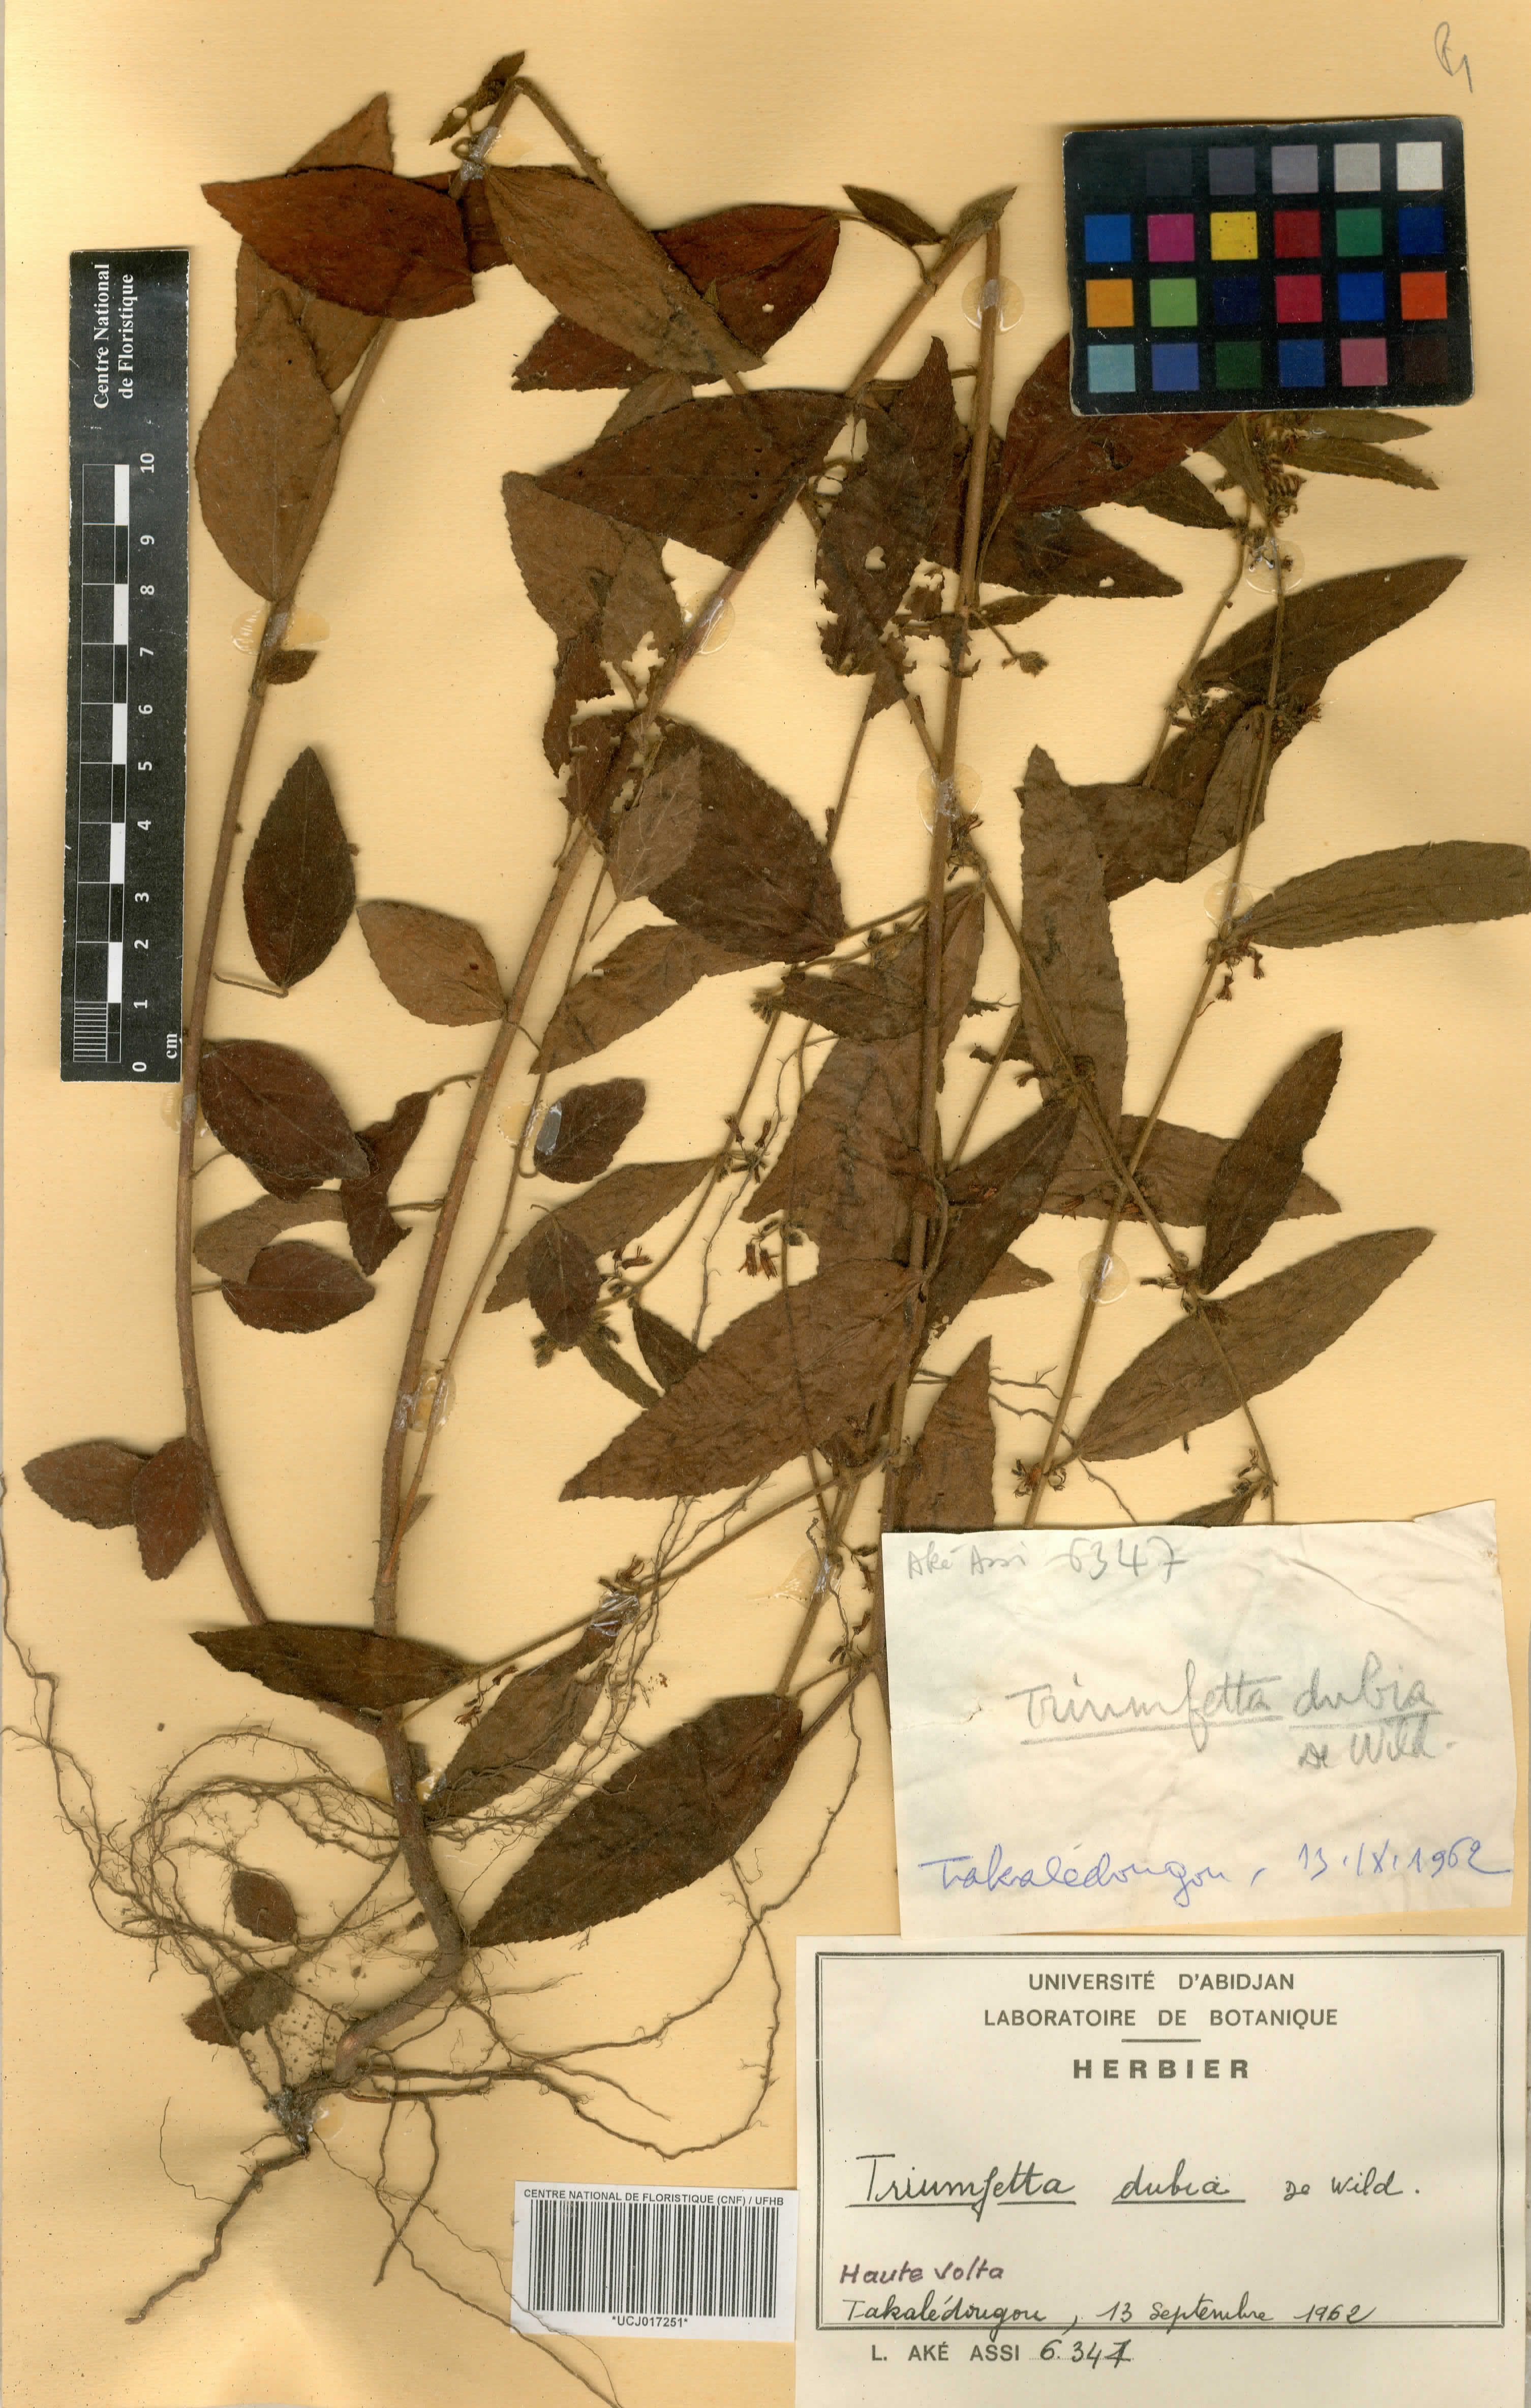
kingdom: Plantae
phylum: Tracheophyta
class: Magnoliopsida
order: Malvales
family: Malvaceae
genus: Triumfetta
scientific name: Triumfetta setulosa
